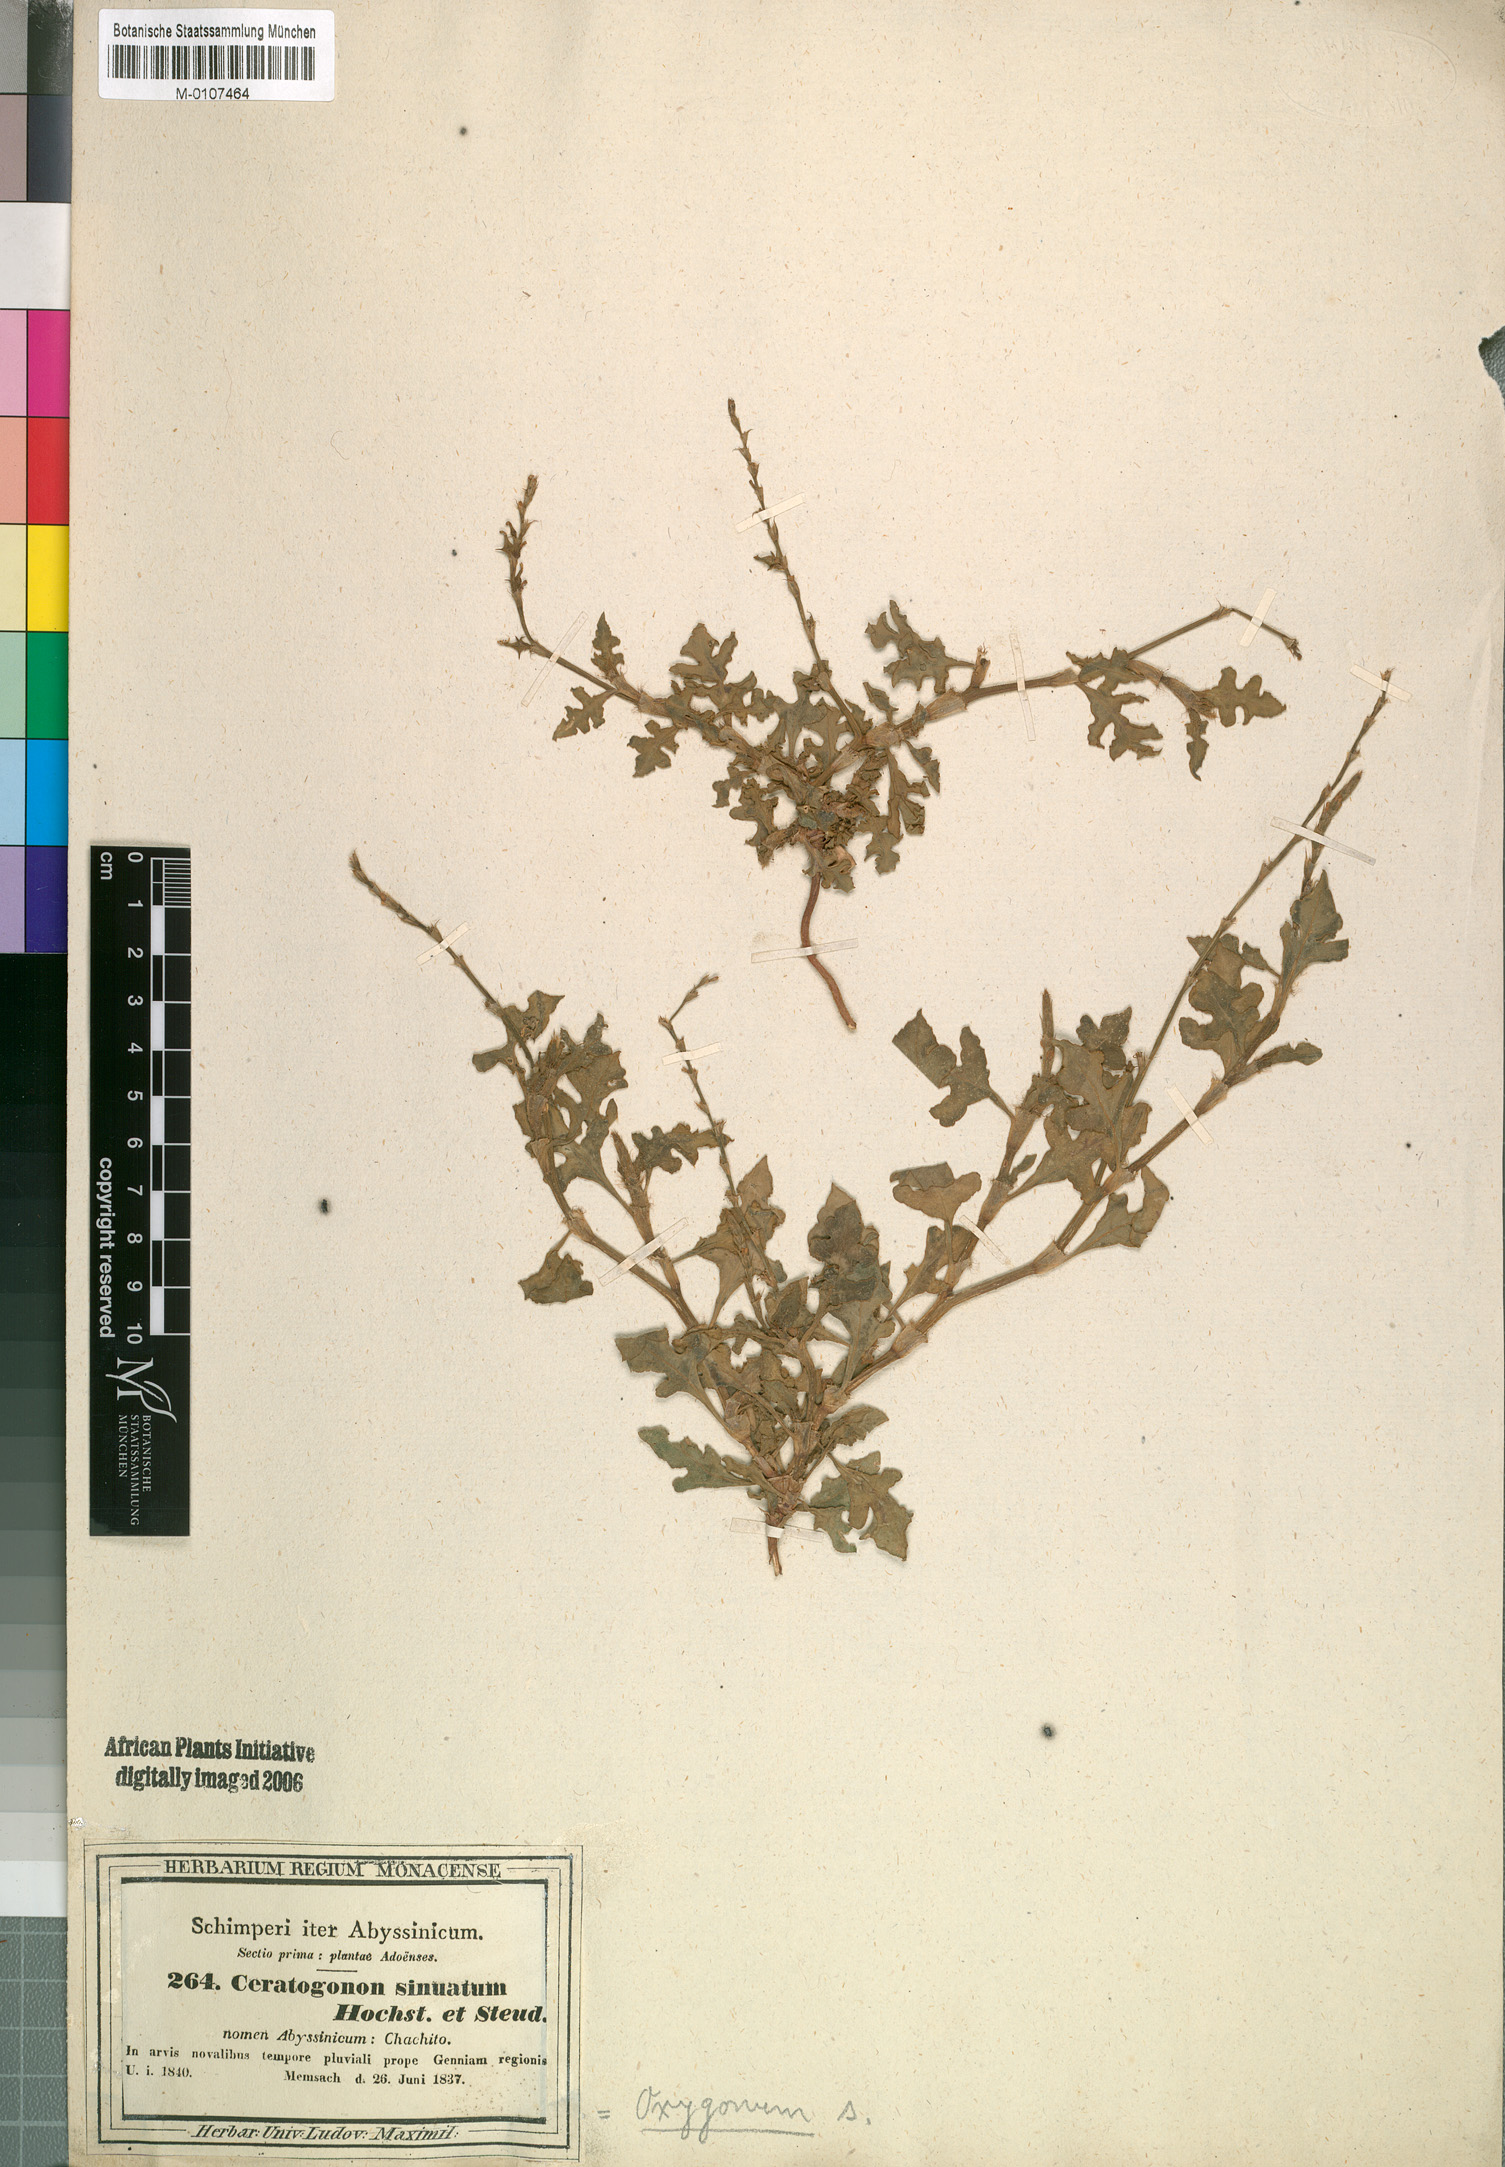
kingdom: Plantae
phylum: Tracheophyta
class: Magnoliopsida
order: Caryophyllales
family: Polygonaceae
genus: Oxygonum
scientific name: Oxygonum sinuatum
